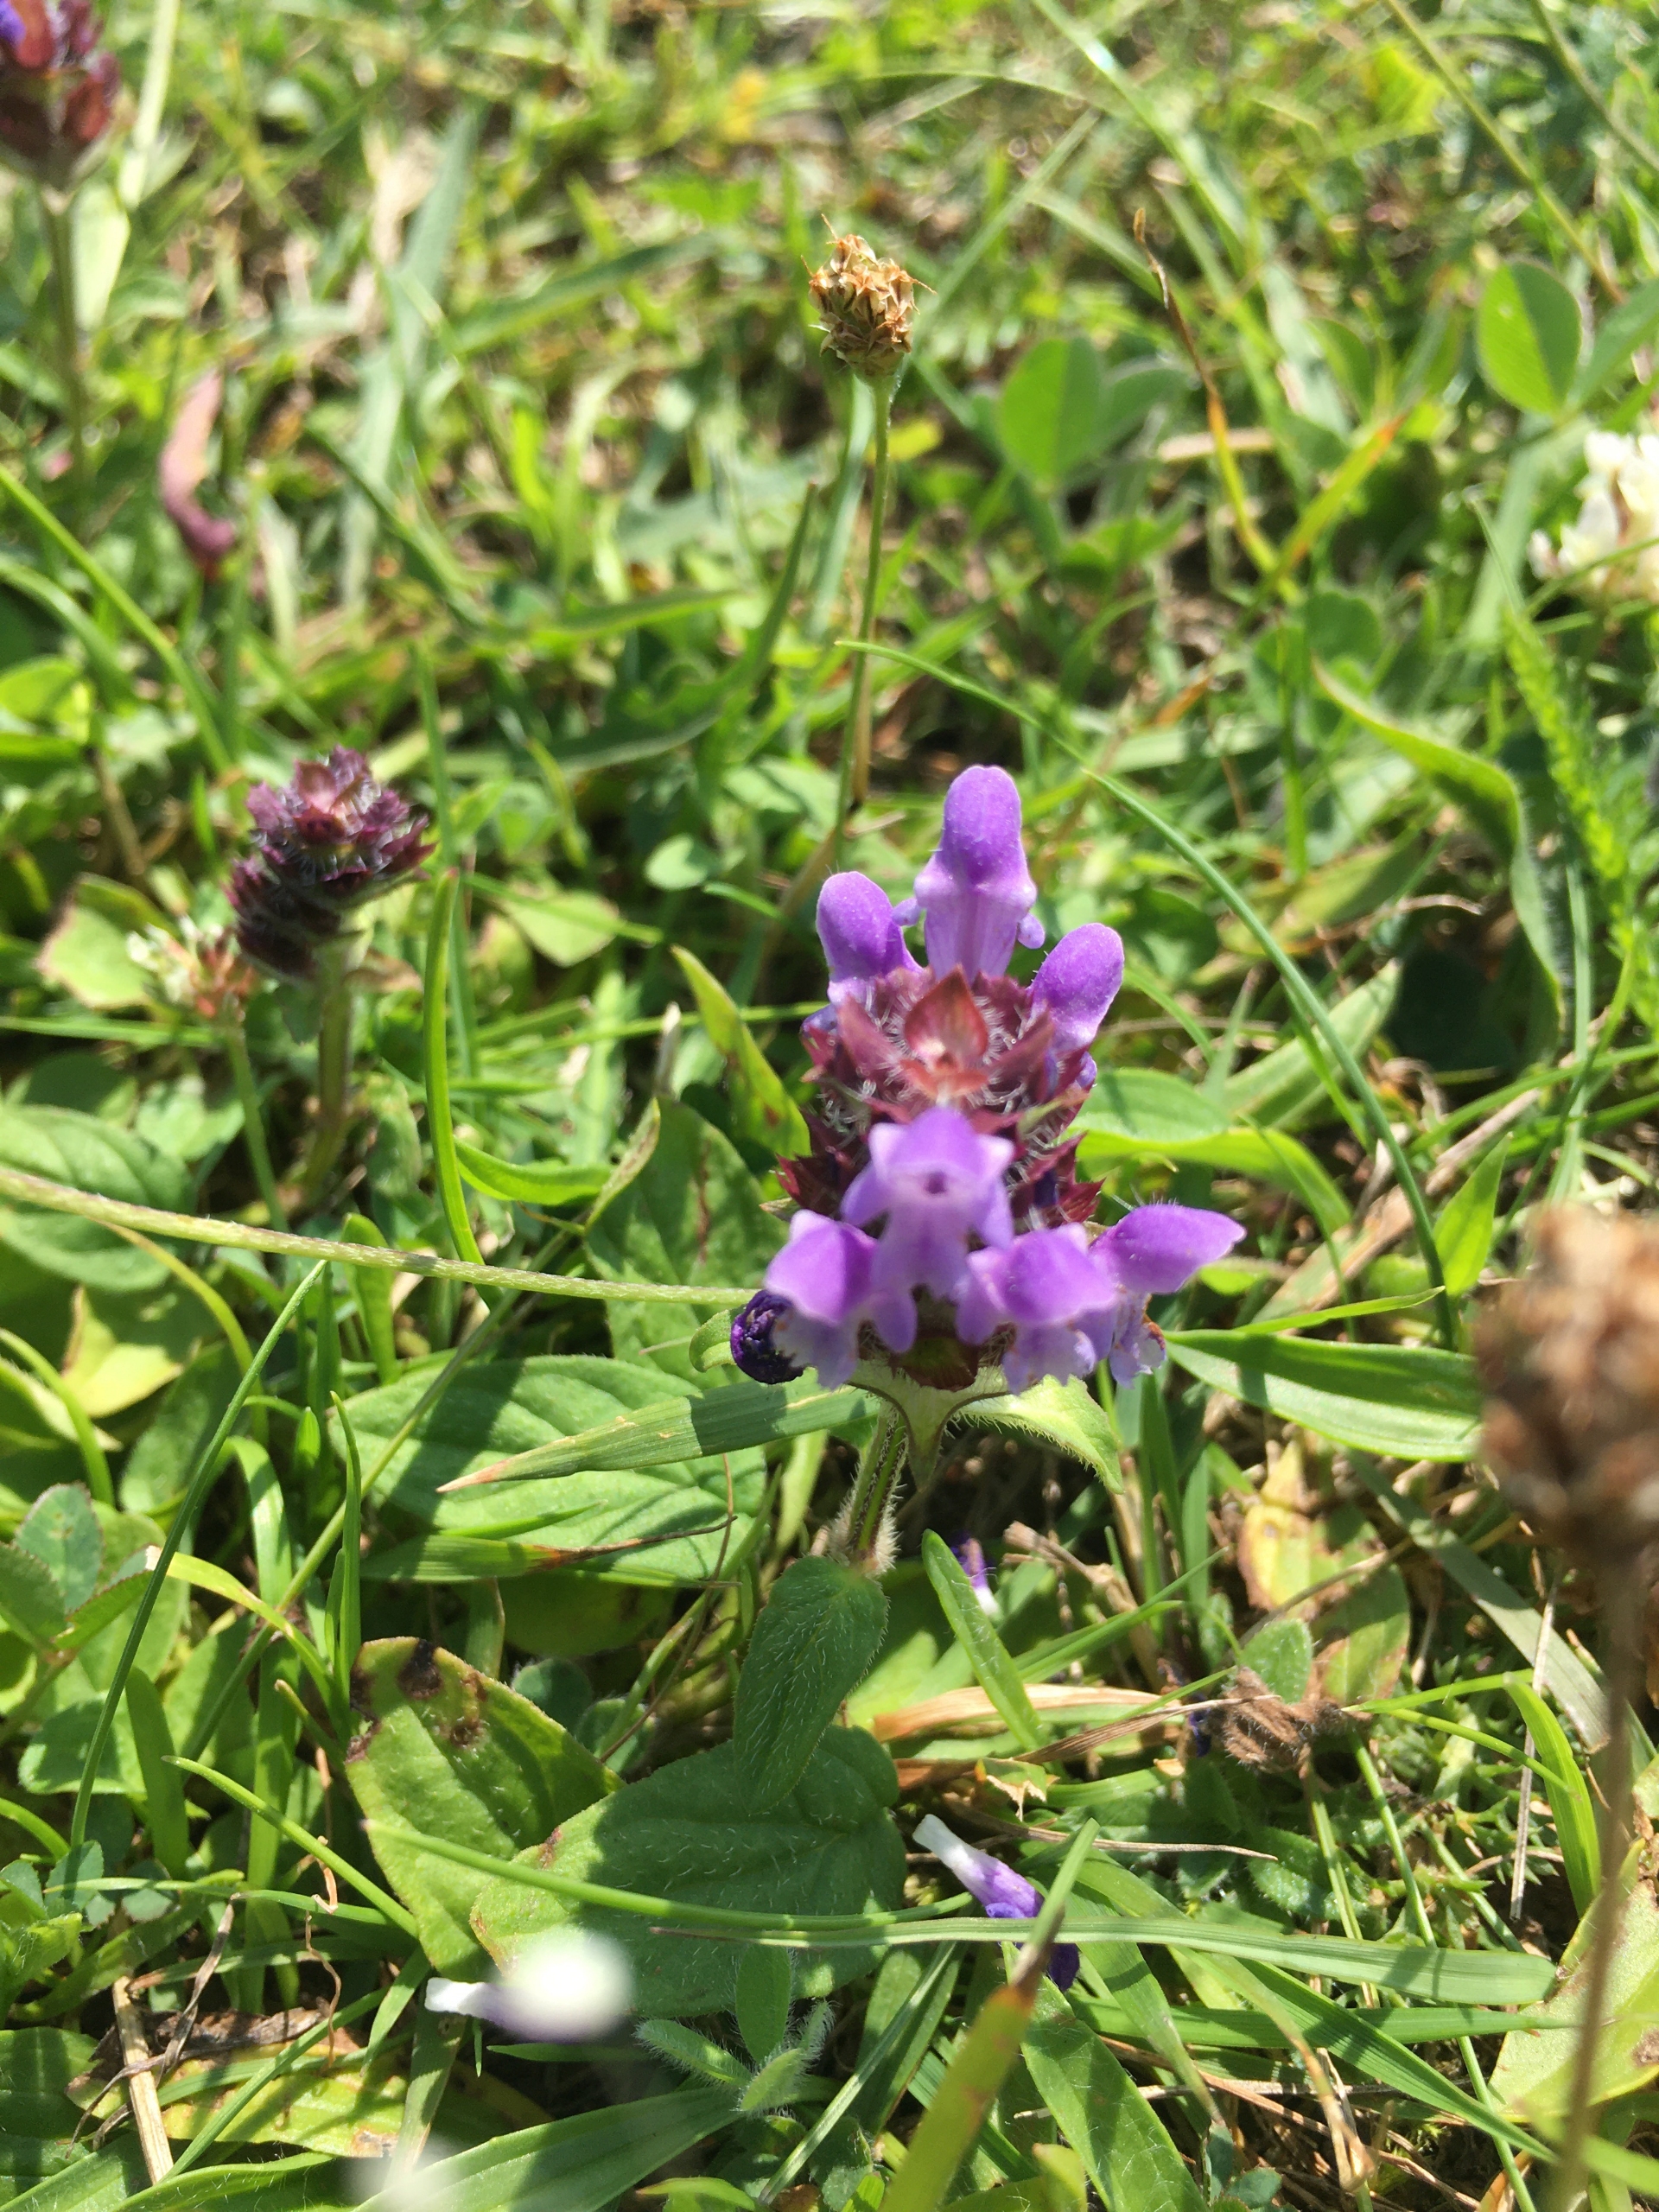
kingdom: Plantae
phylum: Tracheophyta
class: Magnoliopsida
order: Lamiales
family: Lamiaceae
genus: Prunella
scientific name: Prunella vulgaris
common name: Almindelig brunelle
